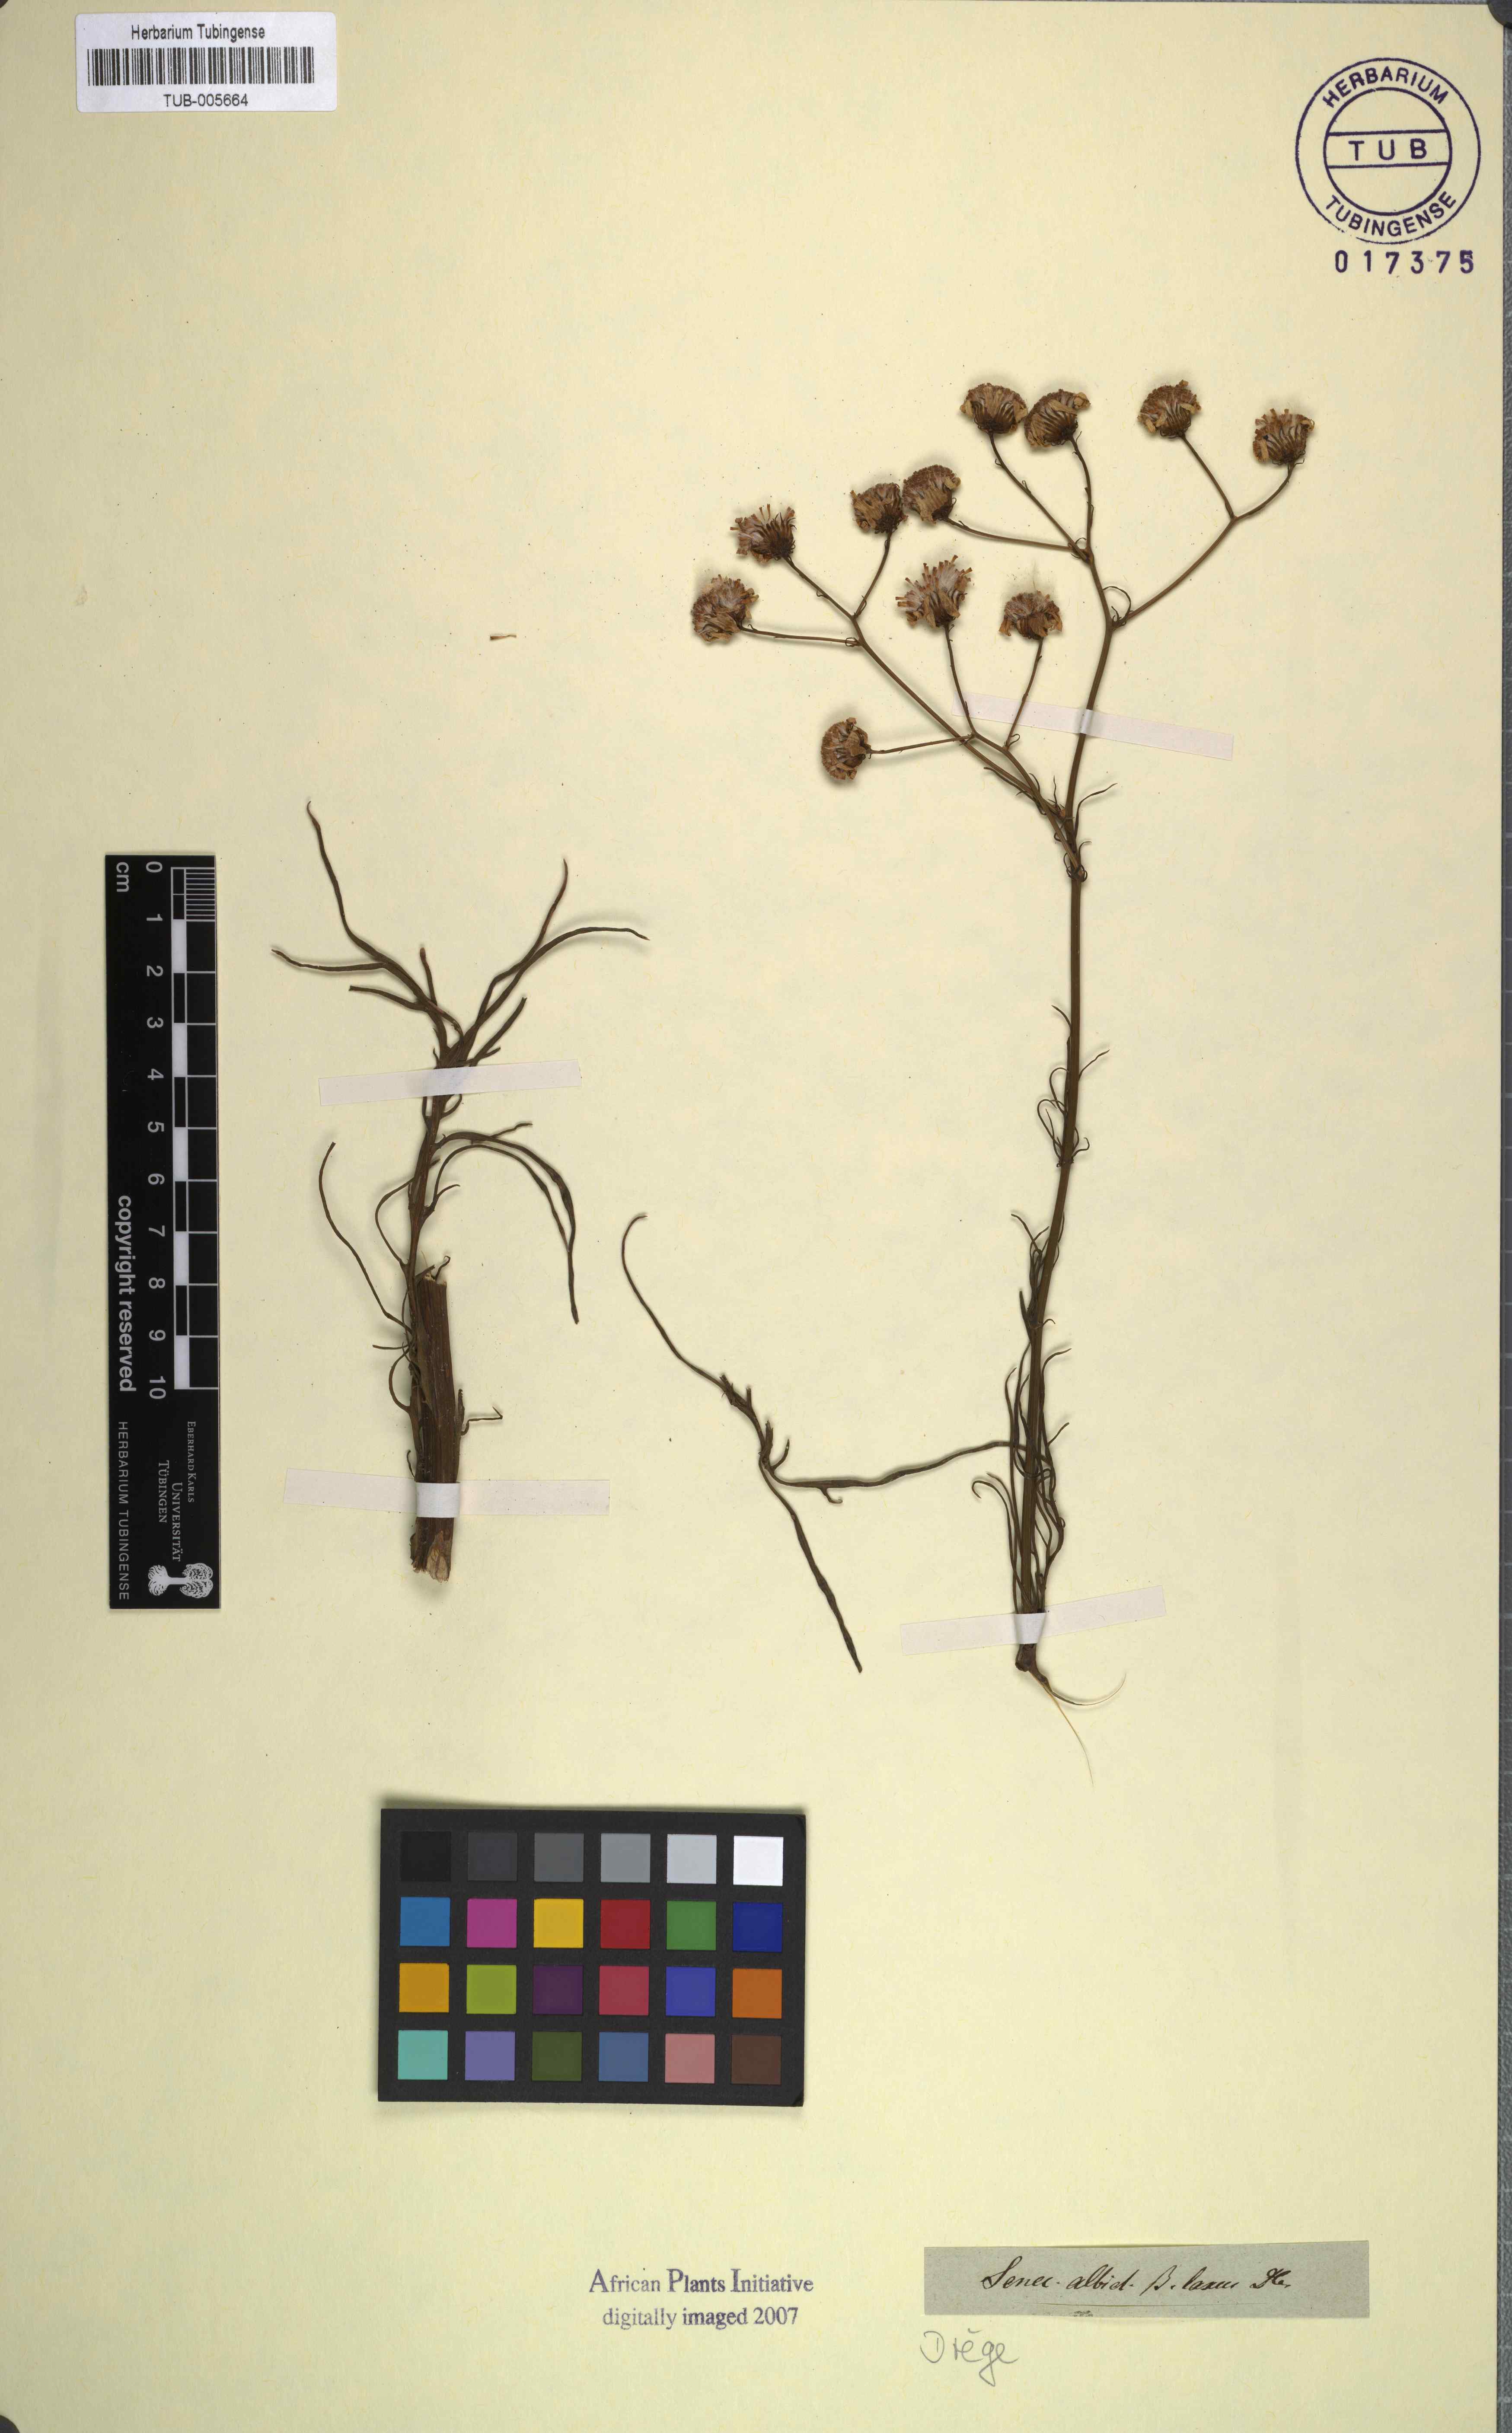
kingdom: Plantae
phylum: Tracheophyta
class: Magnoliopsida
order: Asterales
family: Asteraceae
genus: Senecio
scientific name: Senecio grandiflorus
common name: Purple ragwort
